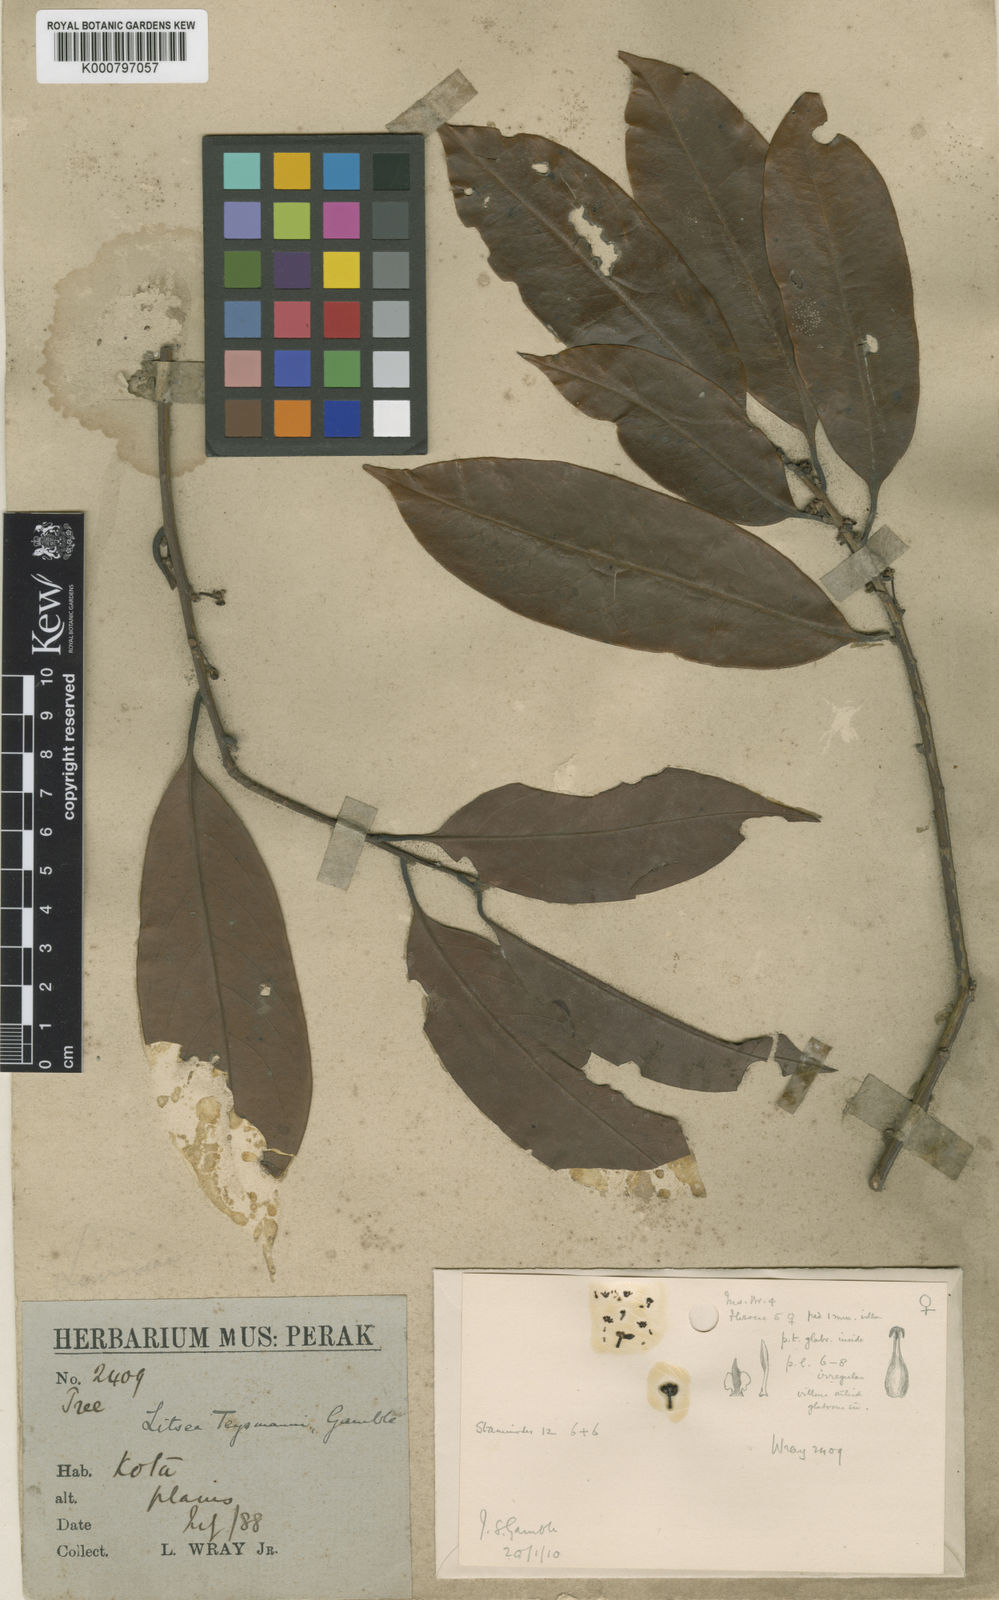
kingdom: Plantae
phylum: Tracheophyta
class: Magnoliopsida
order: Laurales
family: Lauraceae
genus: Litsea
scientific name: Litsea machilifolia
